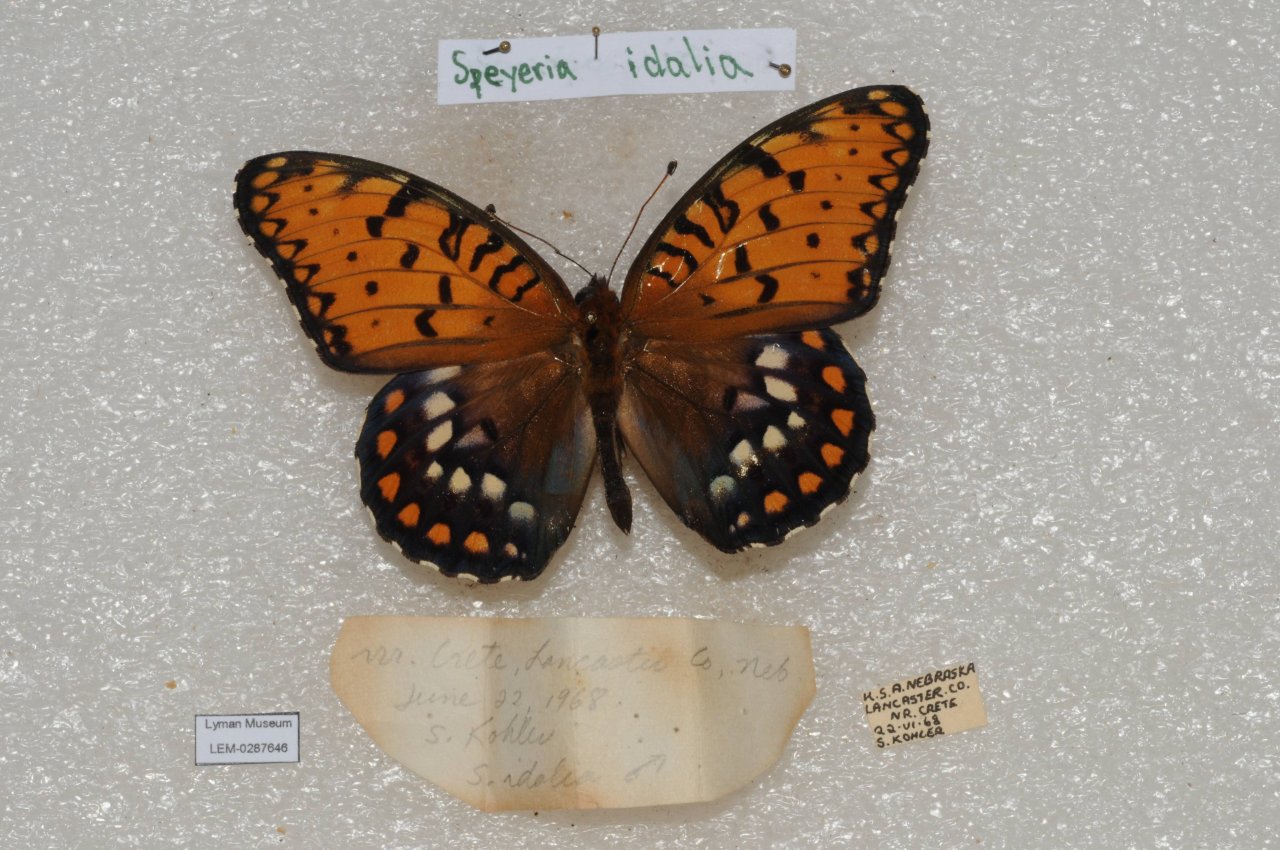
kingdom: Animalia
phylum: Arthropoda
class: Insecta
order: Lepidoptera
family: Nymphalidae
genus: Speyeria
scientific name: Speyeria idalia
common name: Regal Fritillary
